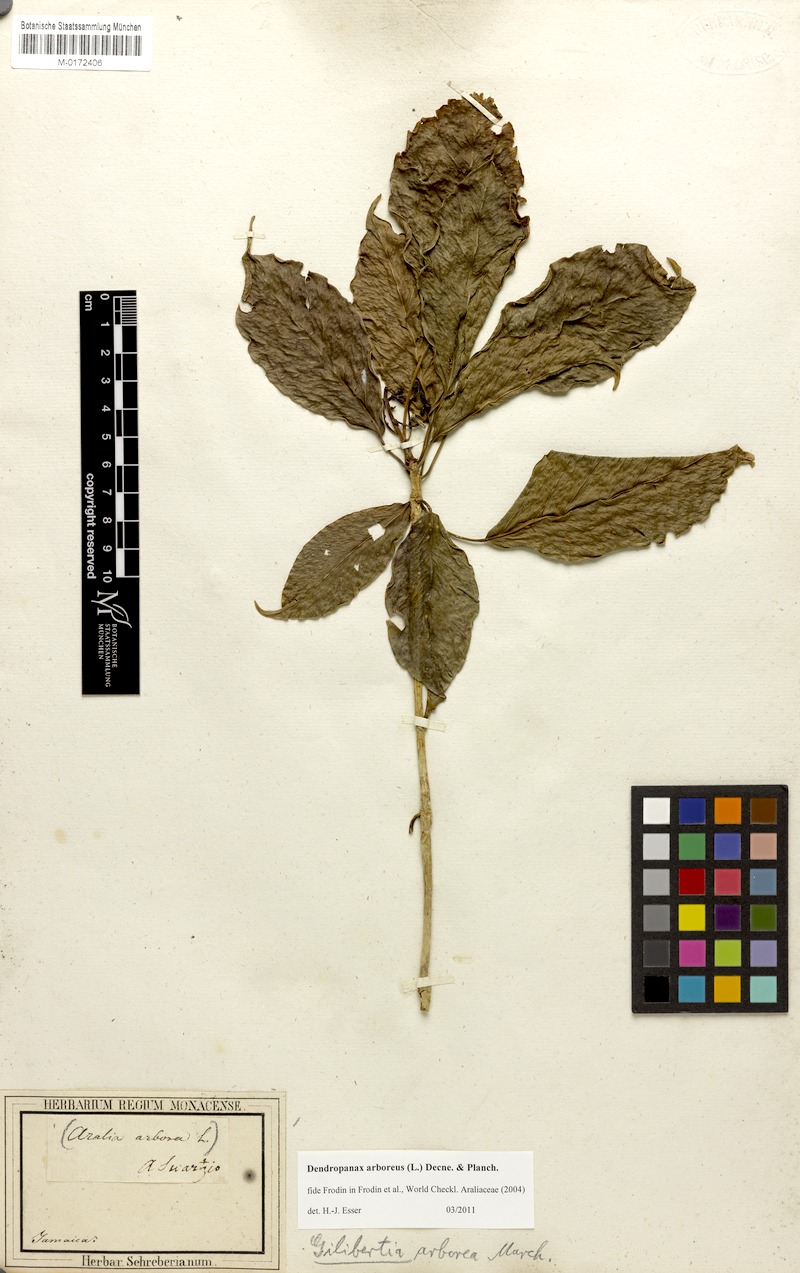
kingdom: Plantae
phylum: Tracheophyta
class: Magnoliopsida
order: Apiales
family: Araliaceae
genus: Dendropanax
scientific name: Dendropanax arboreus
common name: Potato-wood
